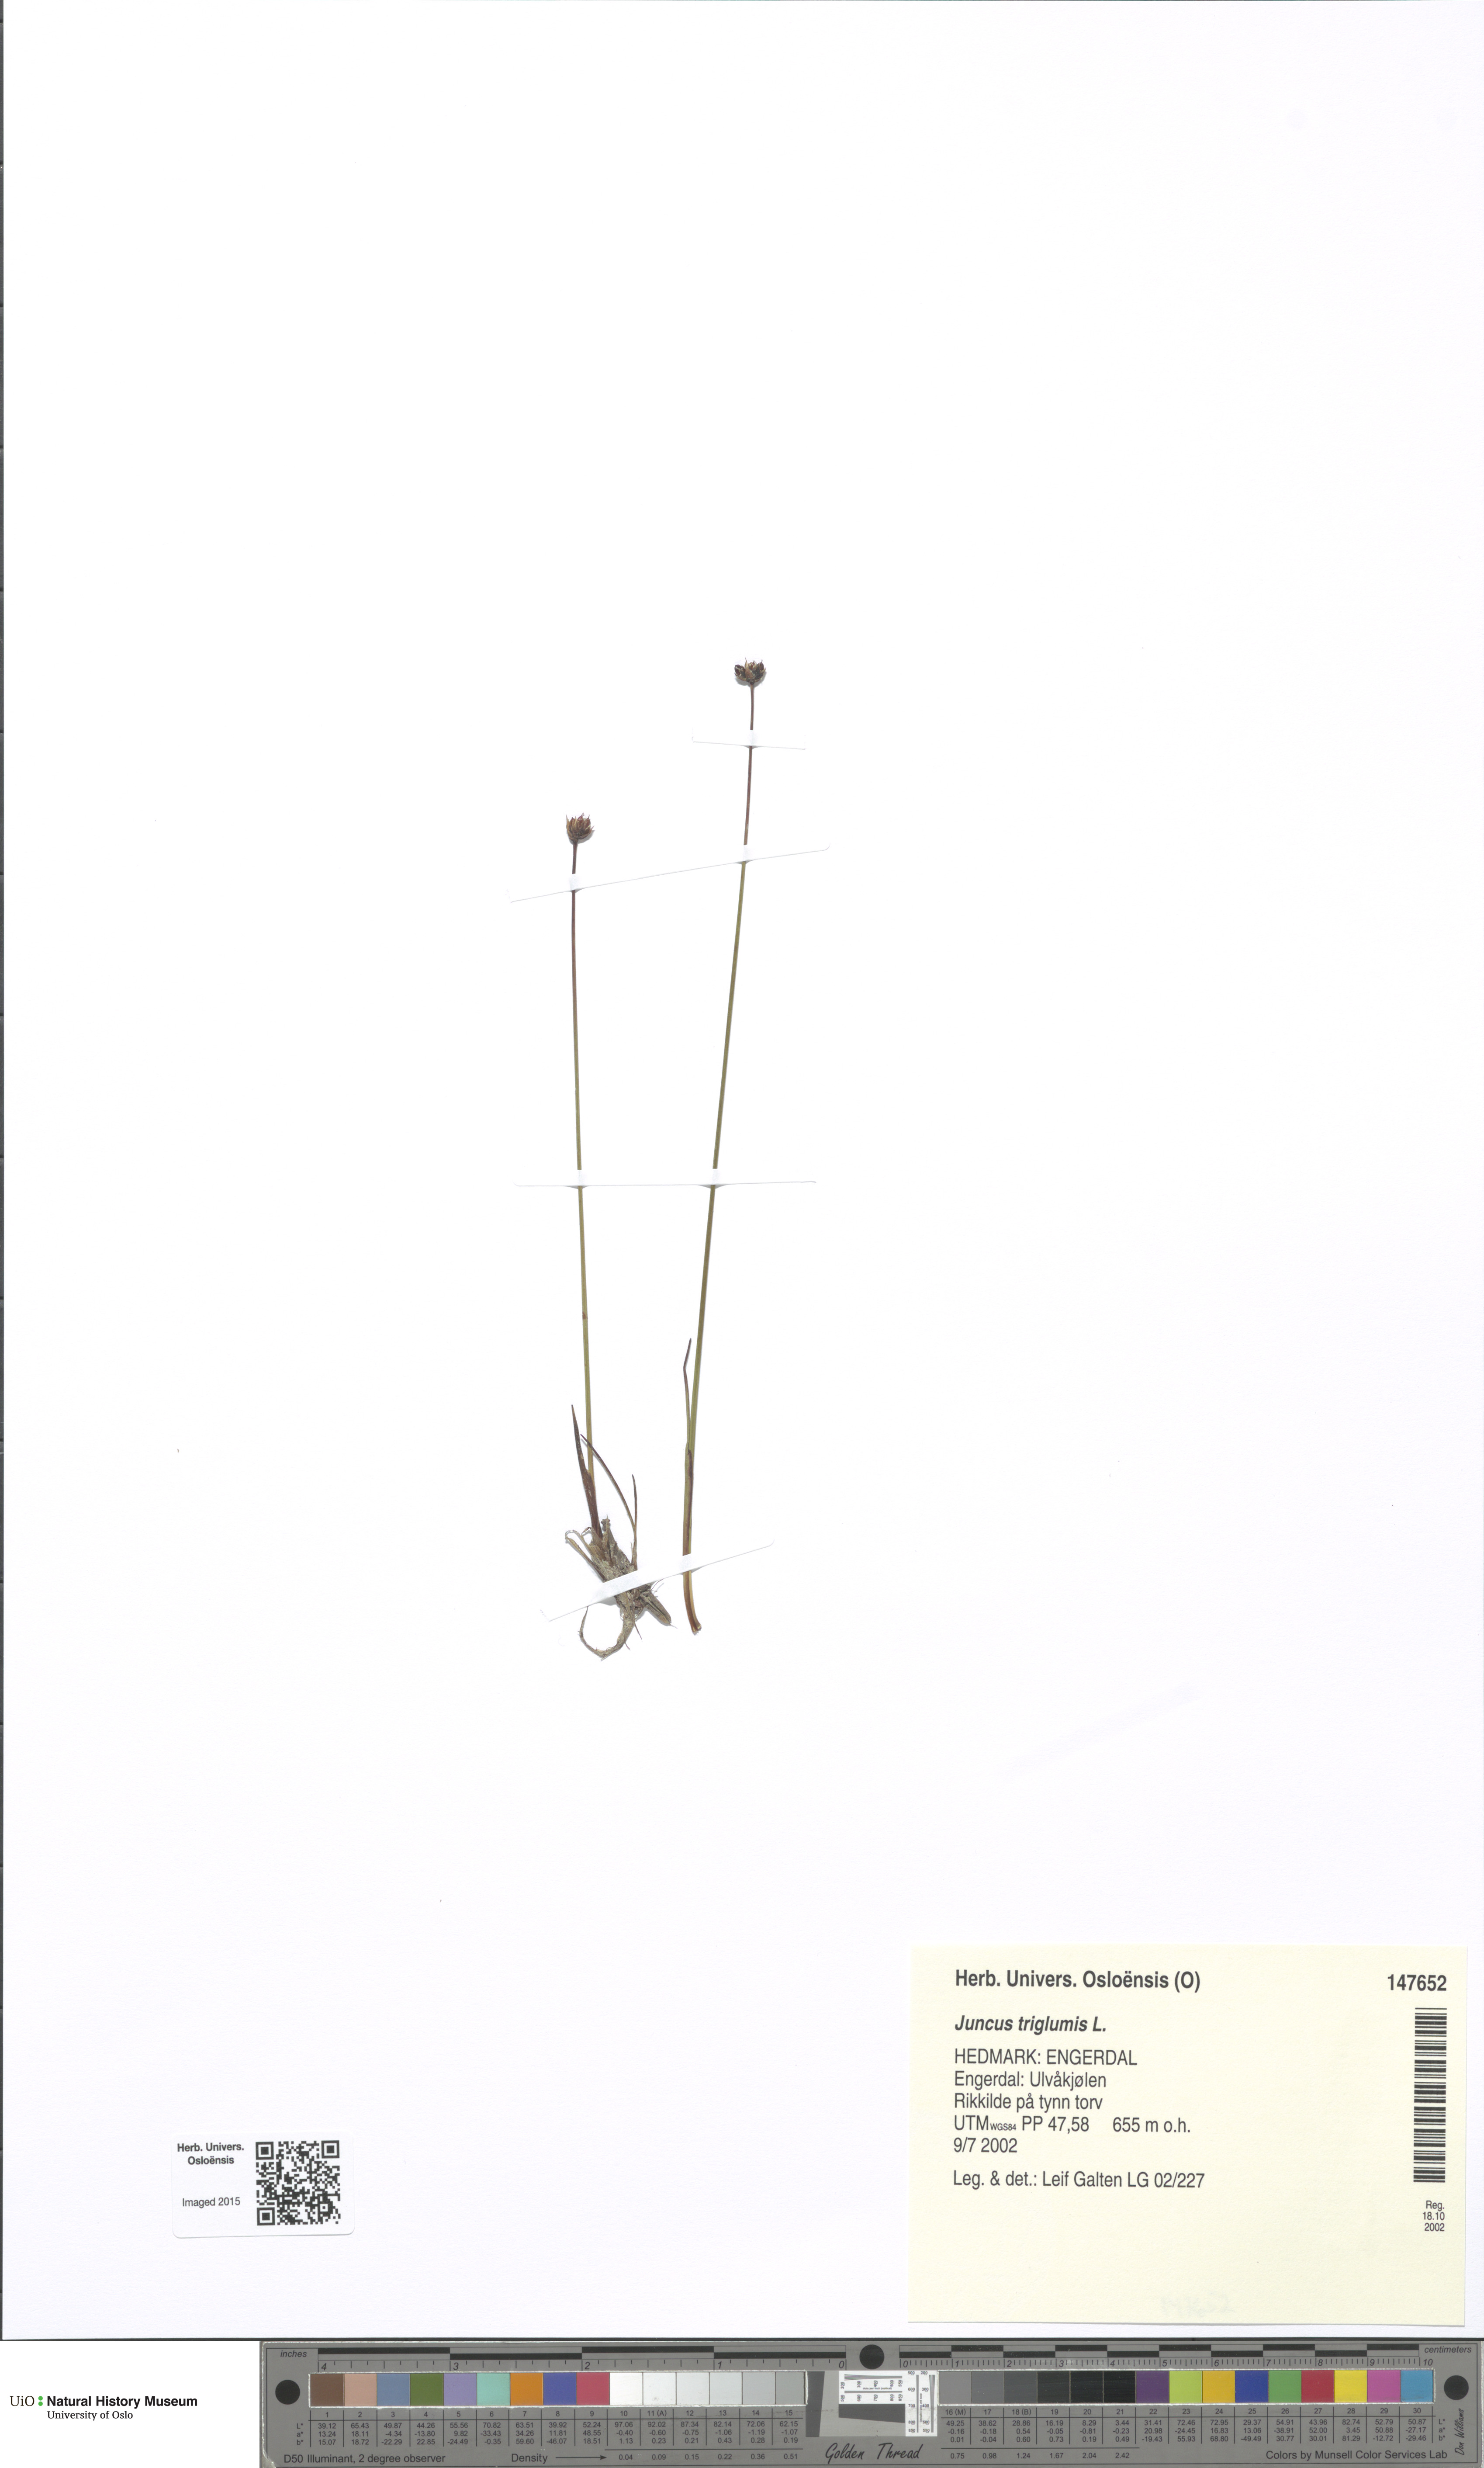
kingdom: Plantae
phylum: Tracheophyta
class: Liliopsida
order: Poales
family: Juncaceae
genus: Juncus
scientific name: Juncus triglumis
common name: Three-flowered rush
